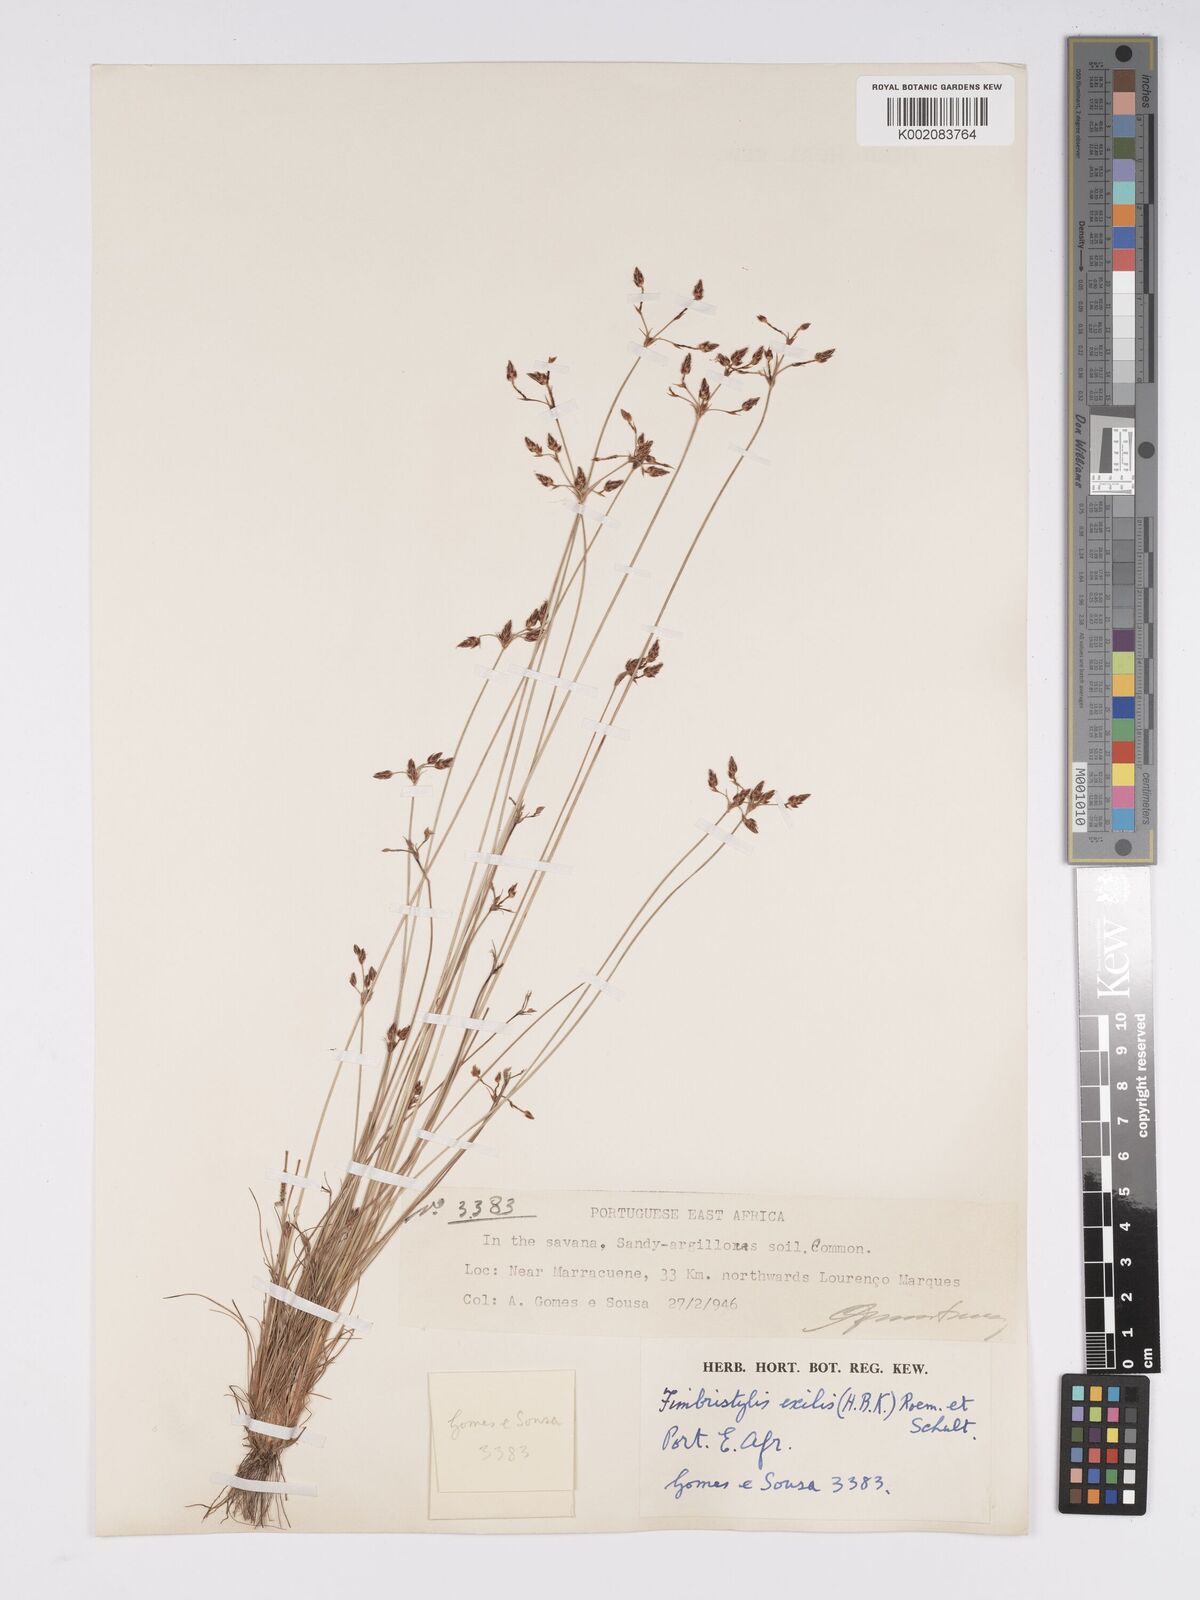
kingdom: Plantae
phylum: Tracheophyta
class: Liliopsida
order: Poales
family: Cyperaceae
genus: Bulbostylis
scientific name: Bulbostylis hispidula
